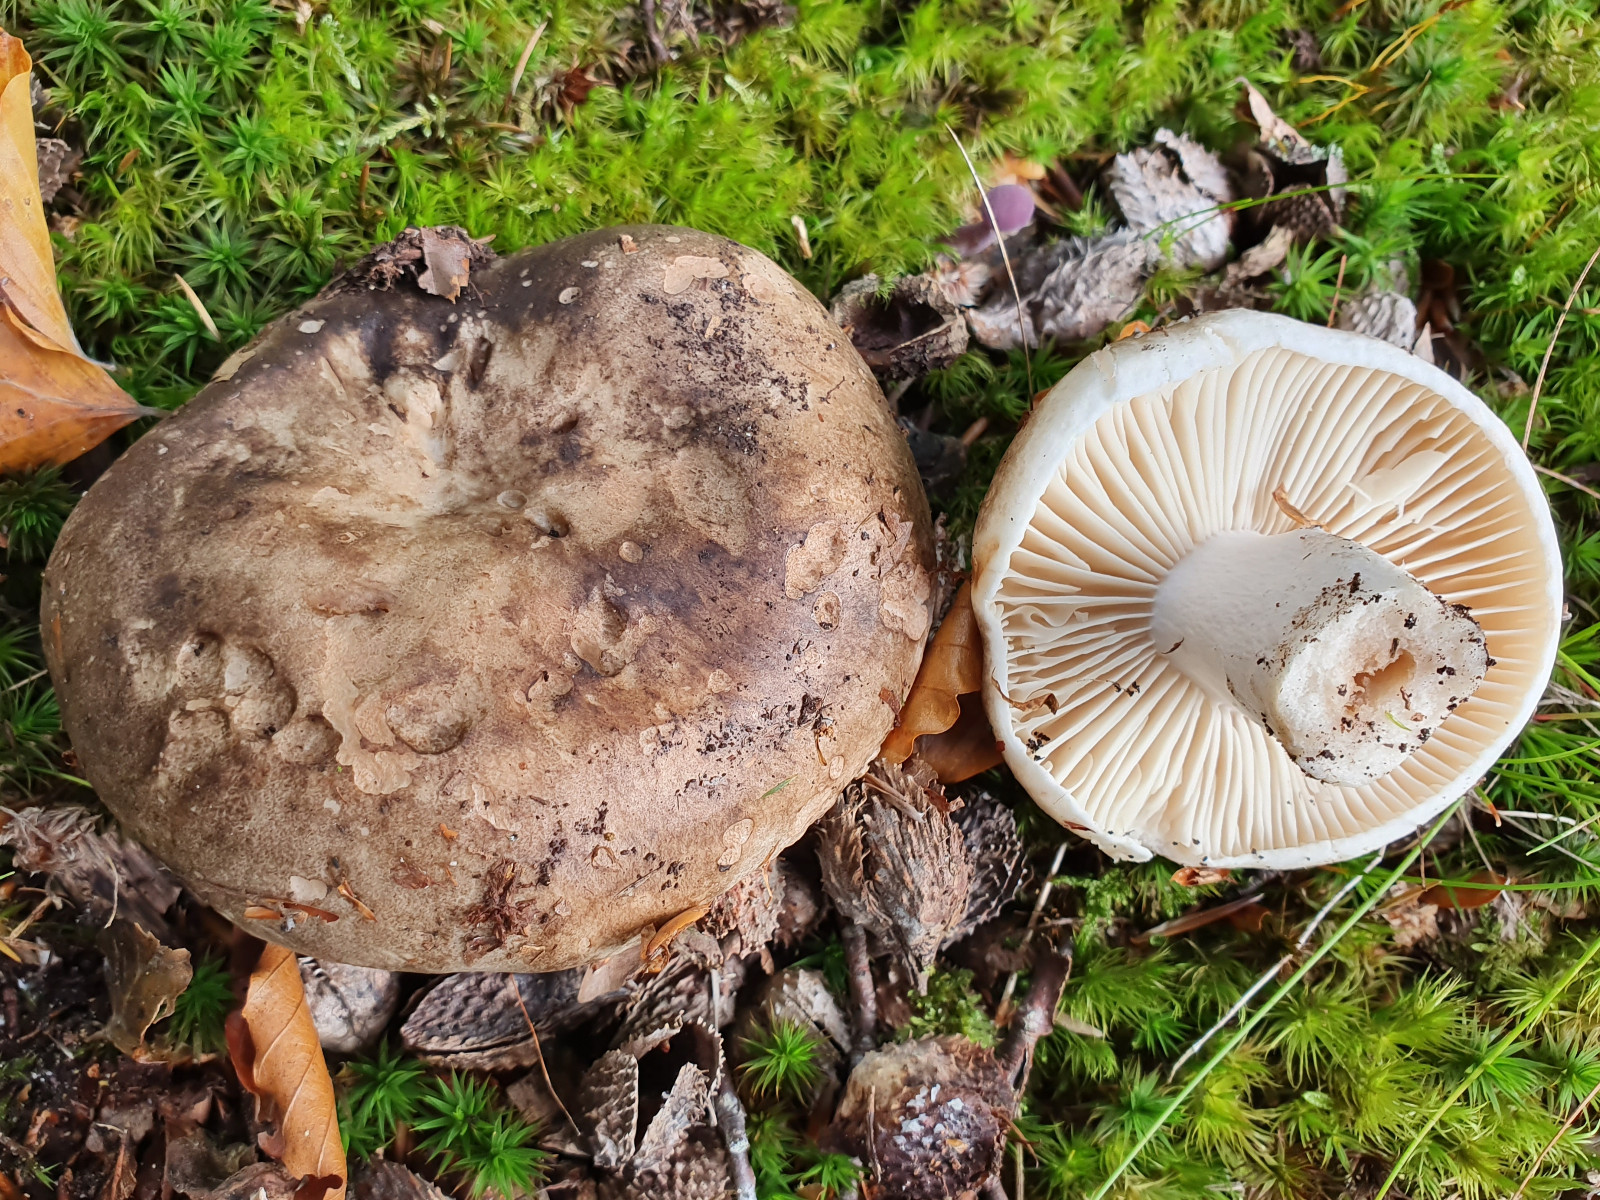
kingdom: Fungi
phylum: Basidiomycota
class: Agaricomycetes
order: Russulales
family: Russulaceae
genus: Russula
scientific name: Russula adusta
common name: sværtende skørhat
